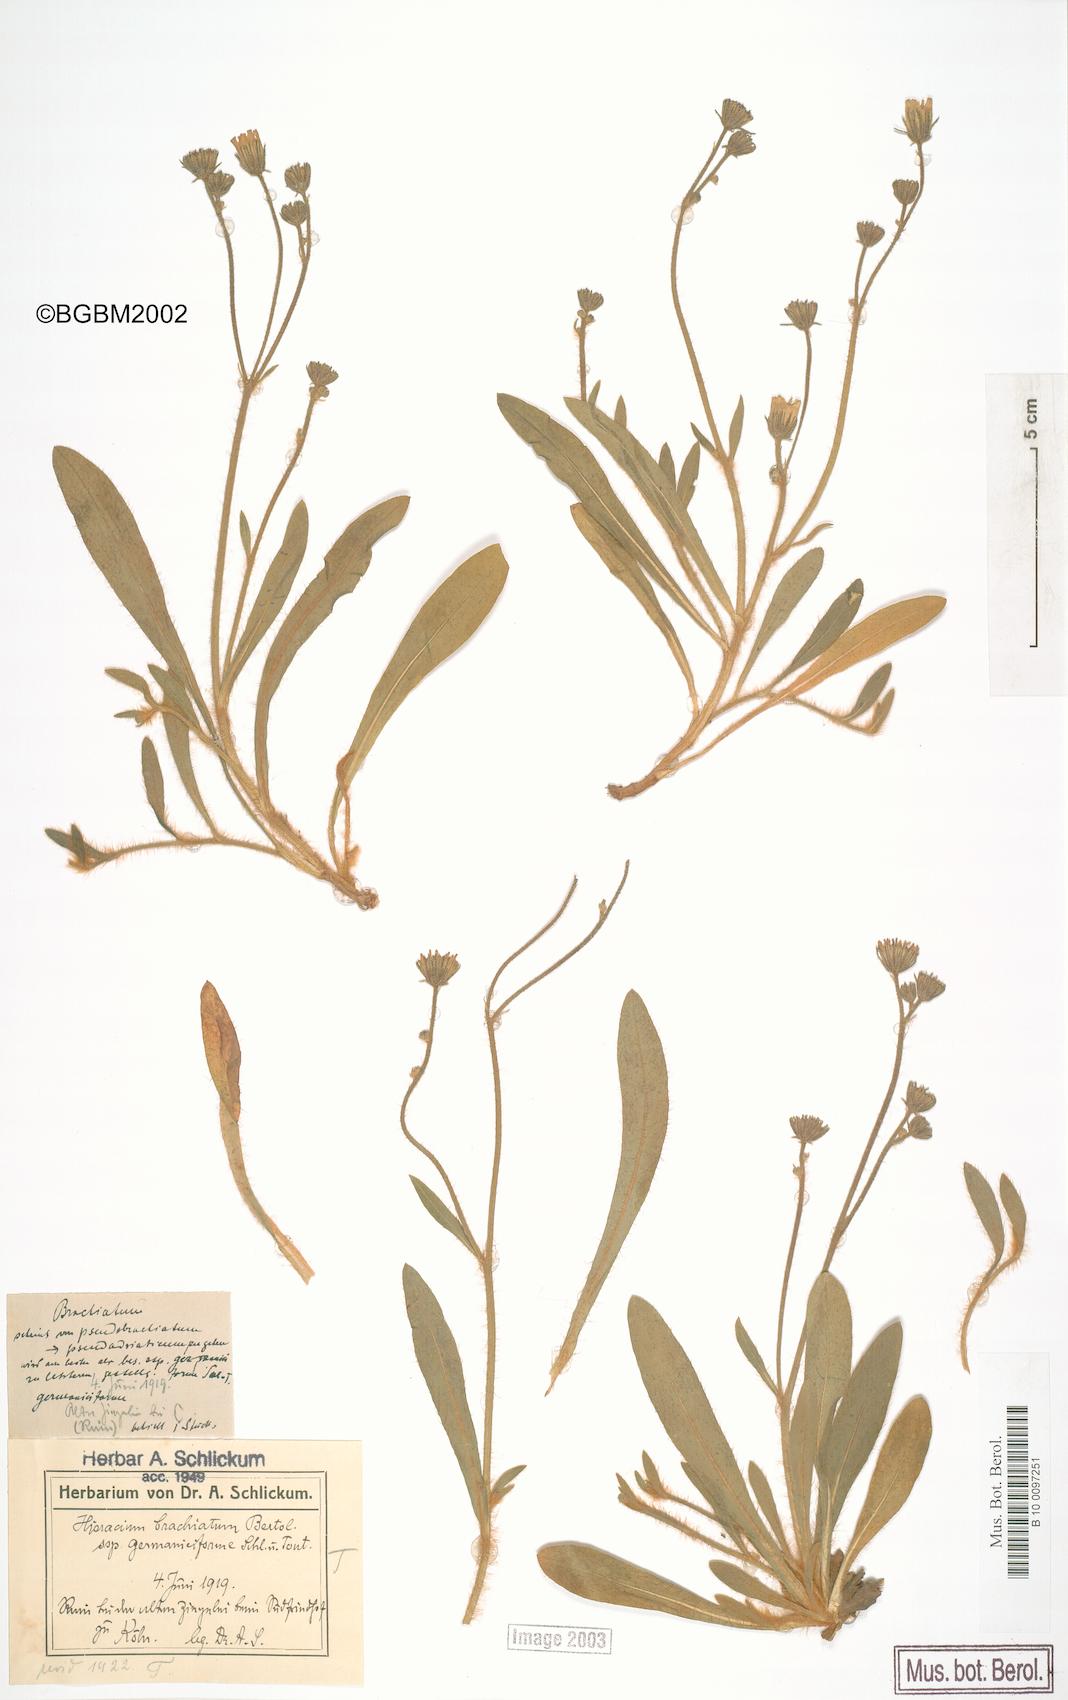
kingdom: Plantae
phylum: Tracheophyta
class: Magnoliopsida
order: Asterales
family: Asteraceae
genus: Pilosella
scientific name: Pilosella visianii
